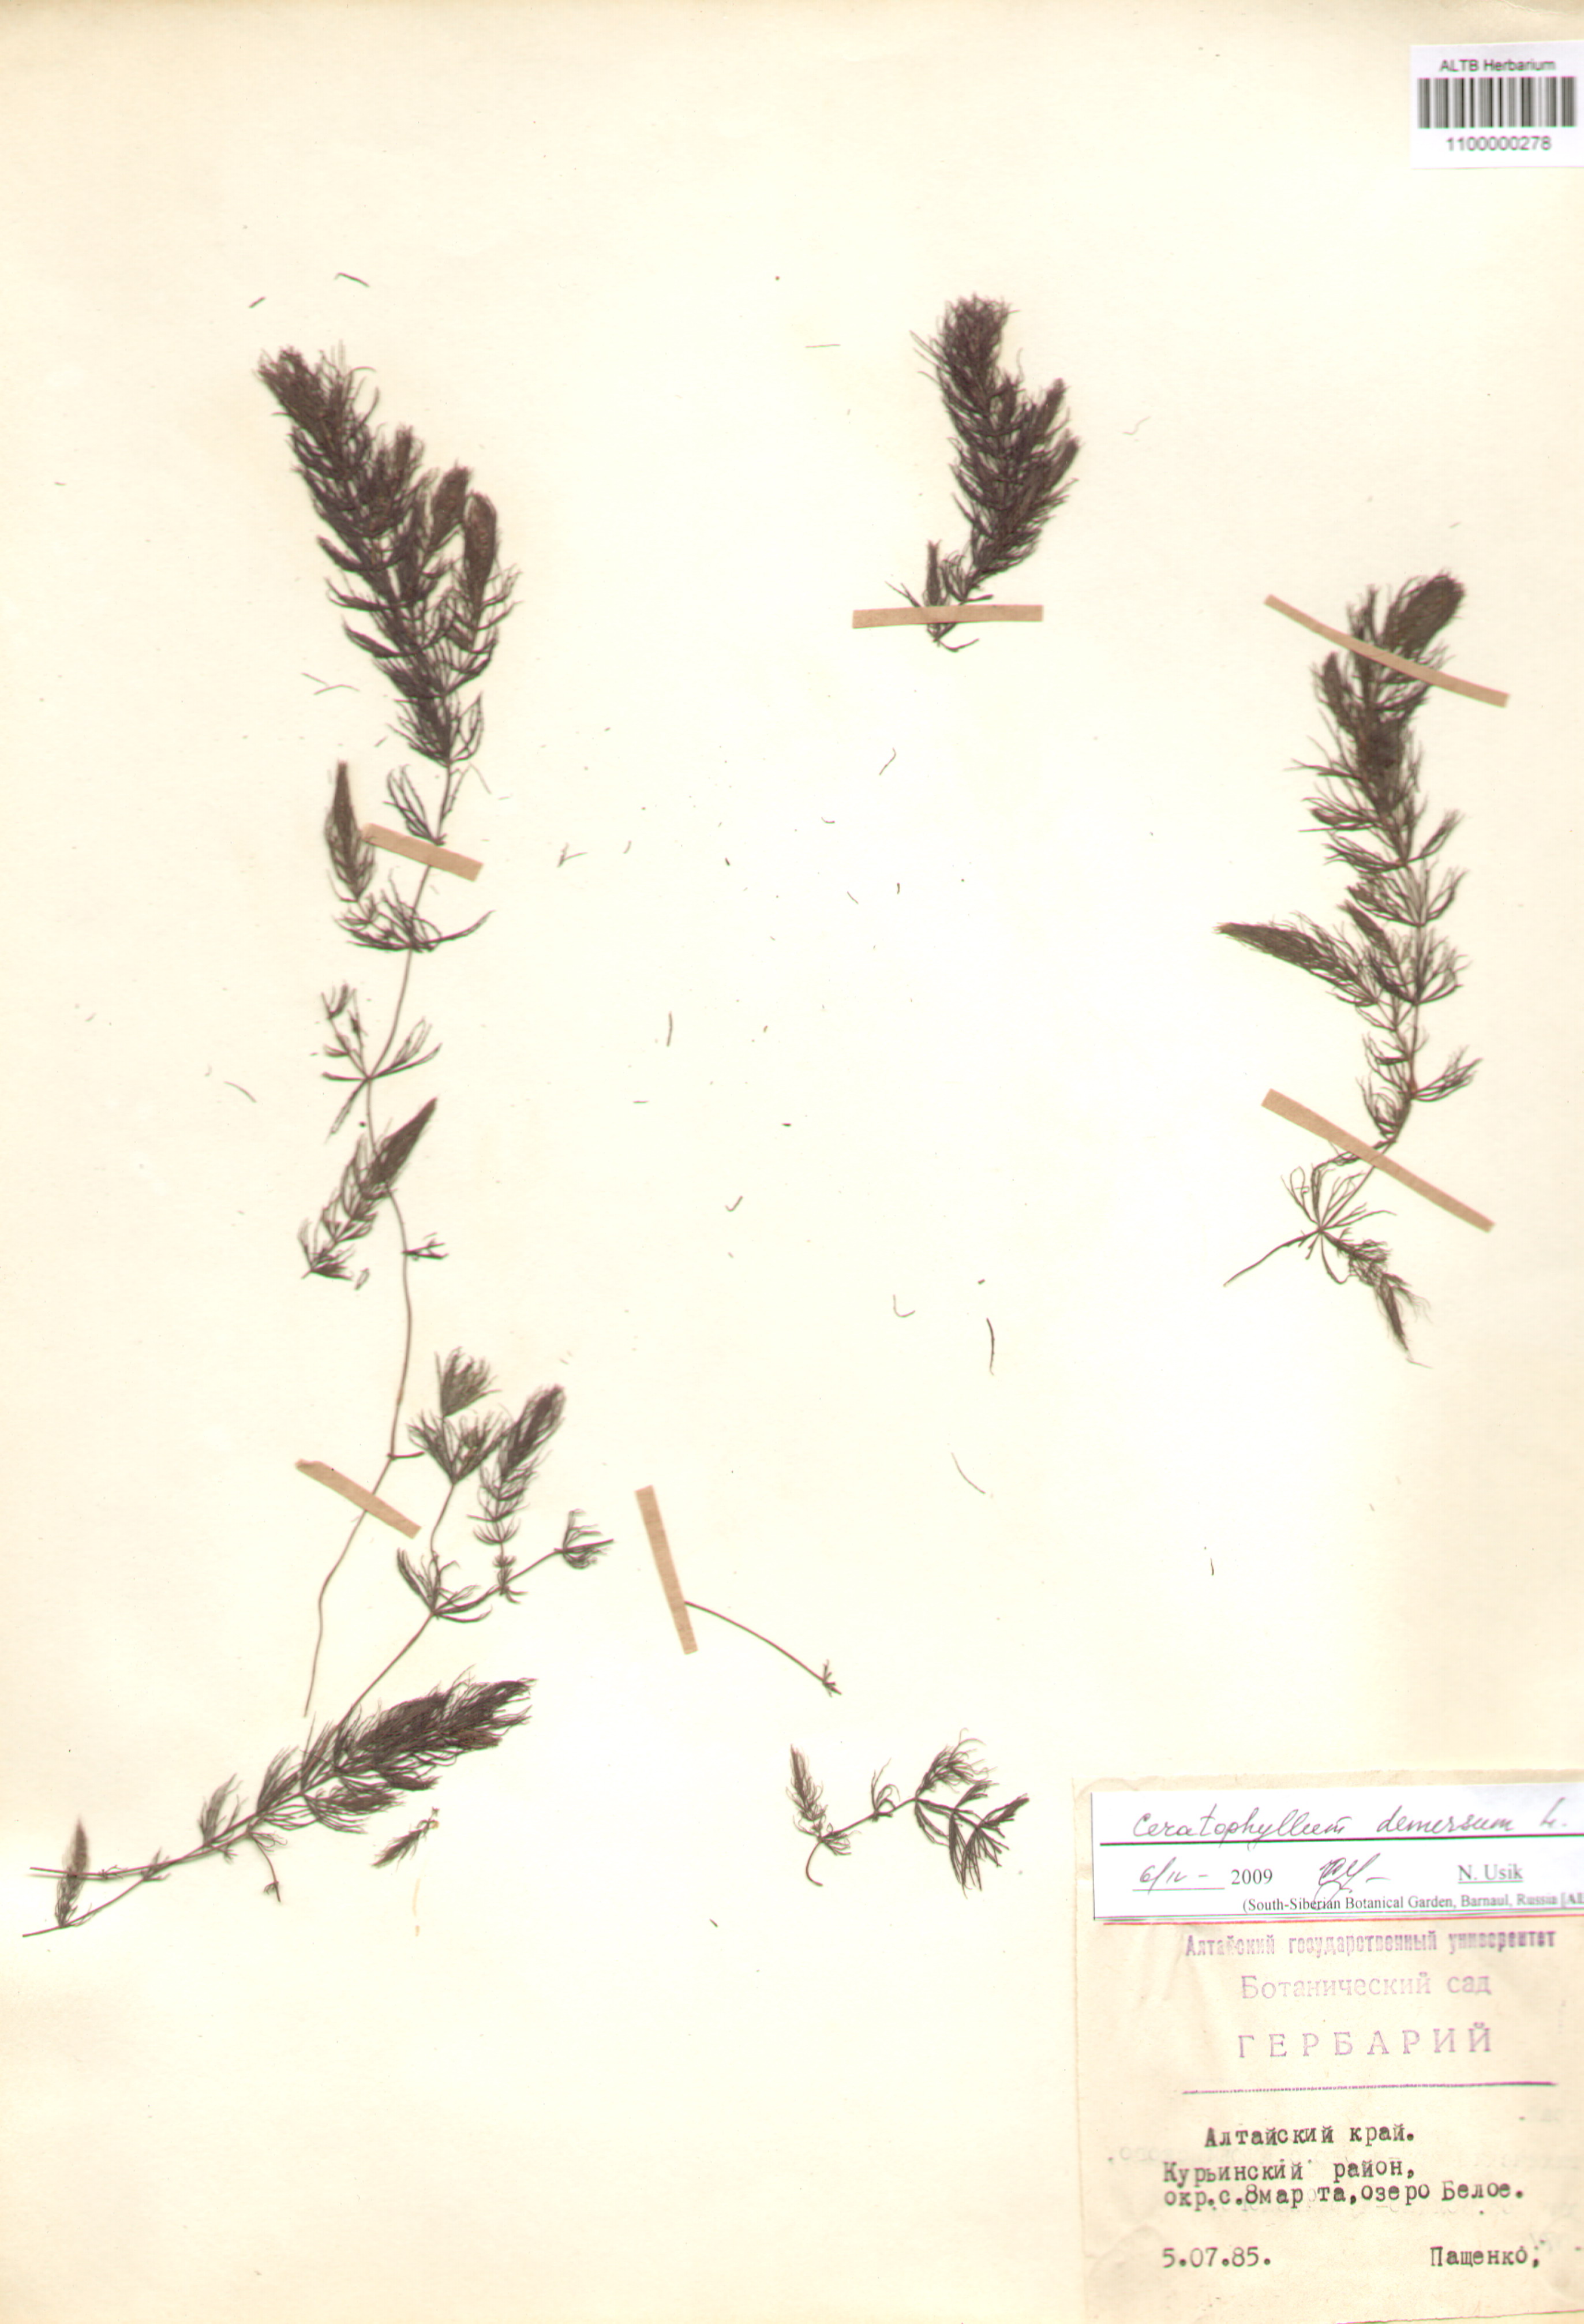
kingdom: Plantae
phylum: Tracheophyta
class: Magnoliopsida
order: Ceratophyllales
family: Ceratophyllaceae
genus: Ceratophyllum
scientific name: Ceratophyllum demersum
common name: Rigid hornwort
